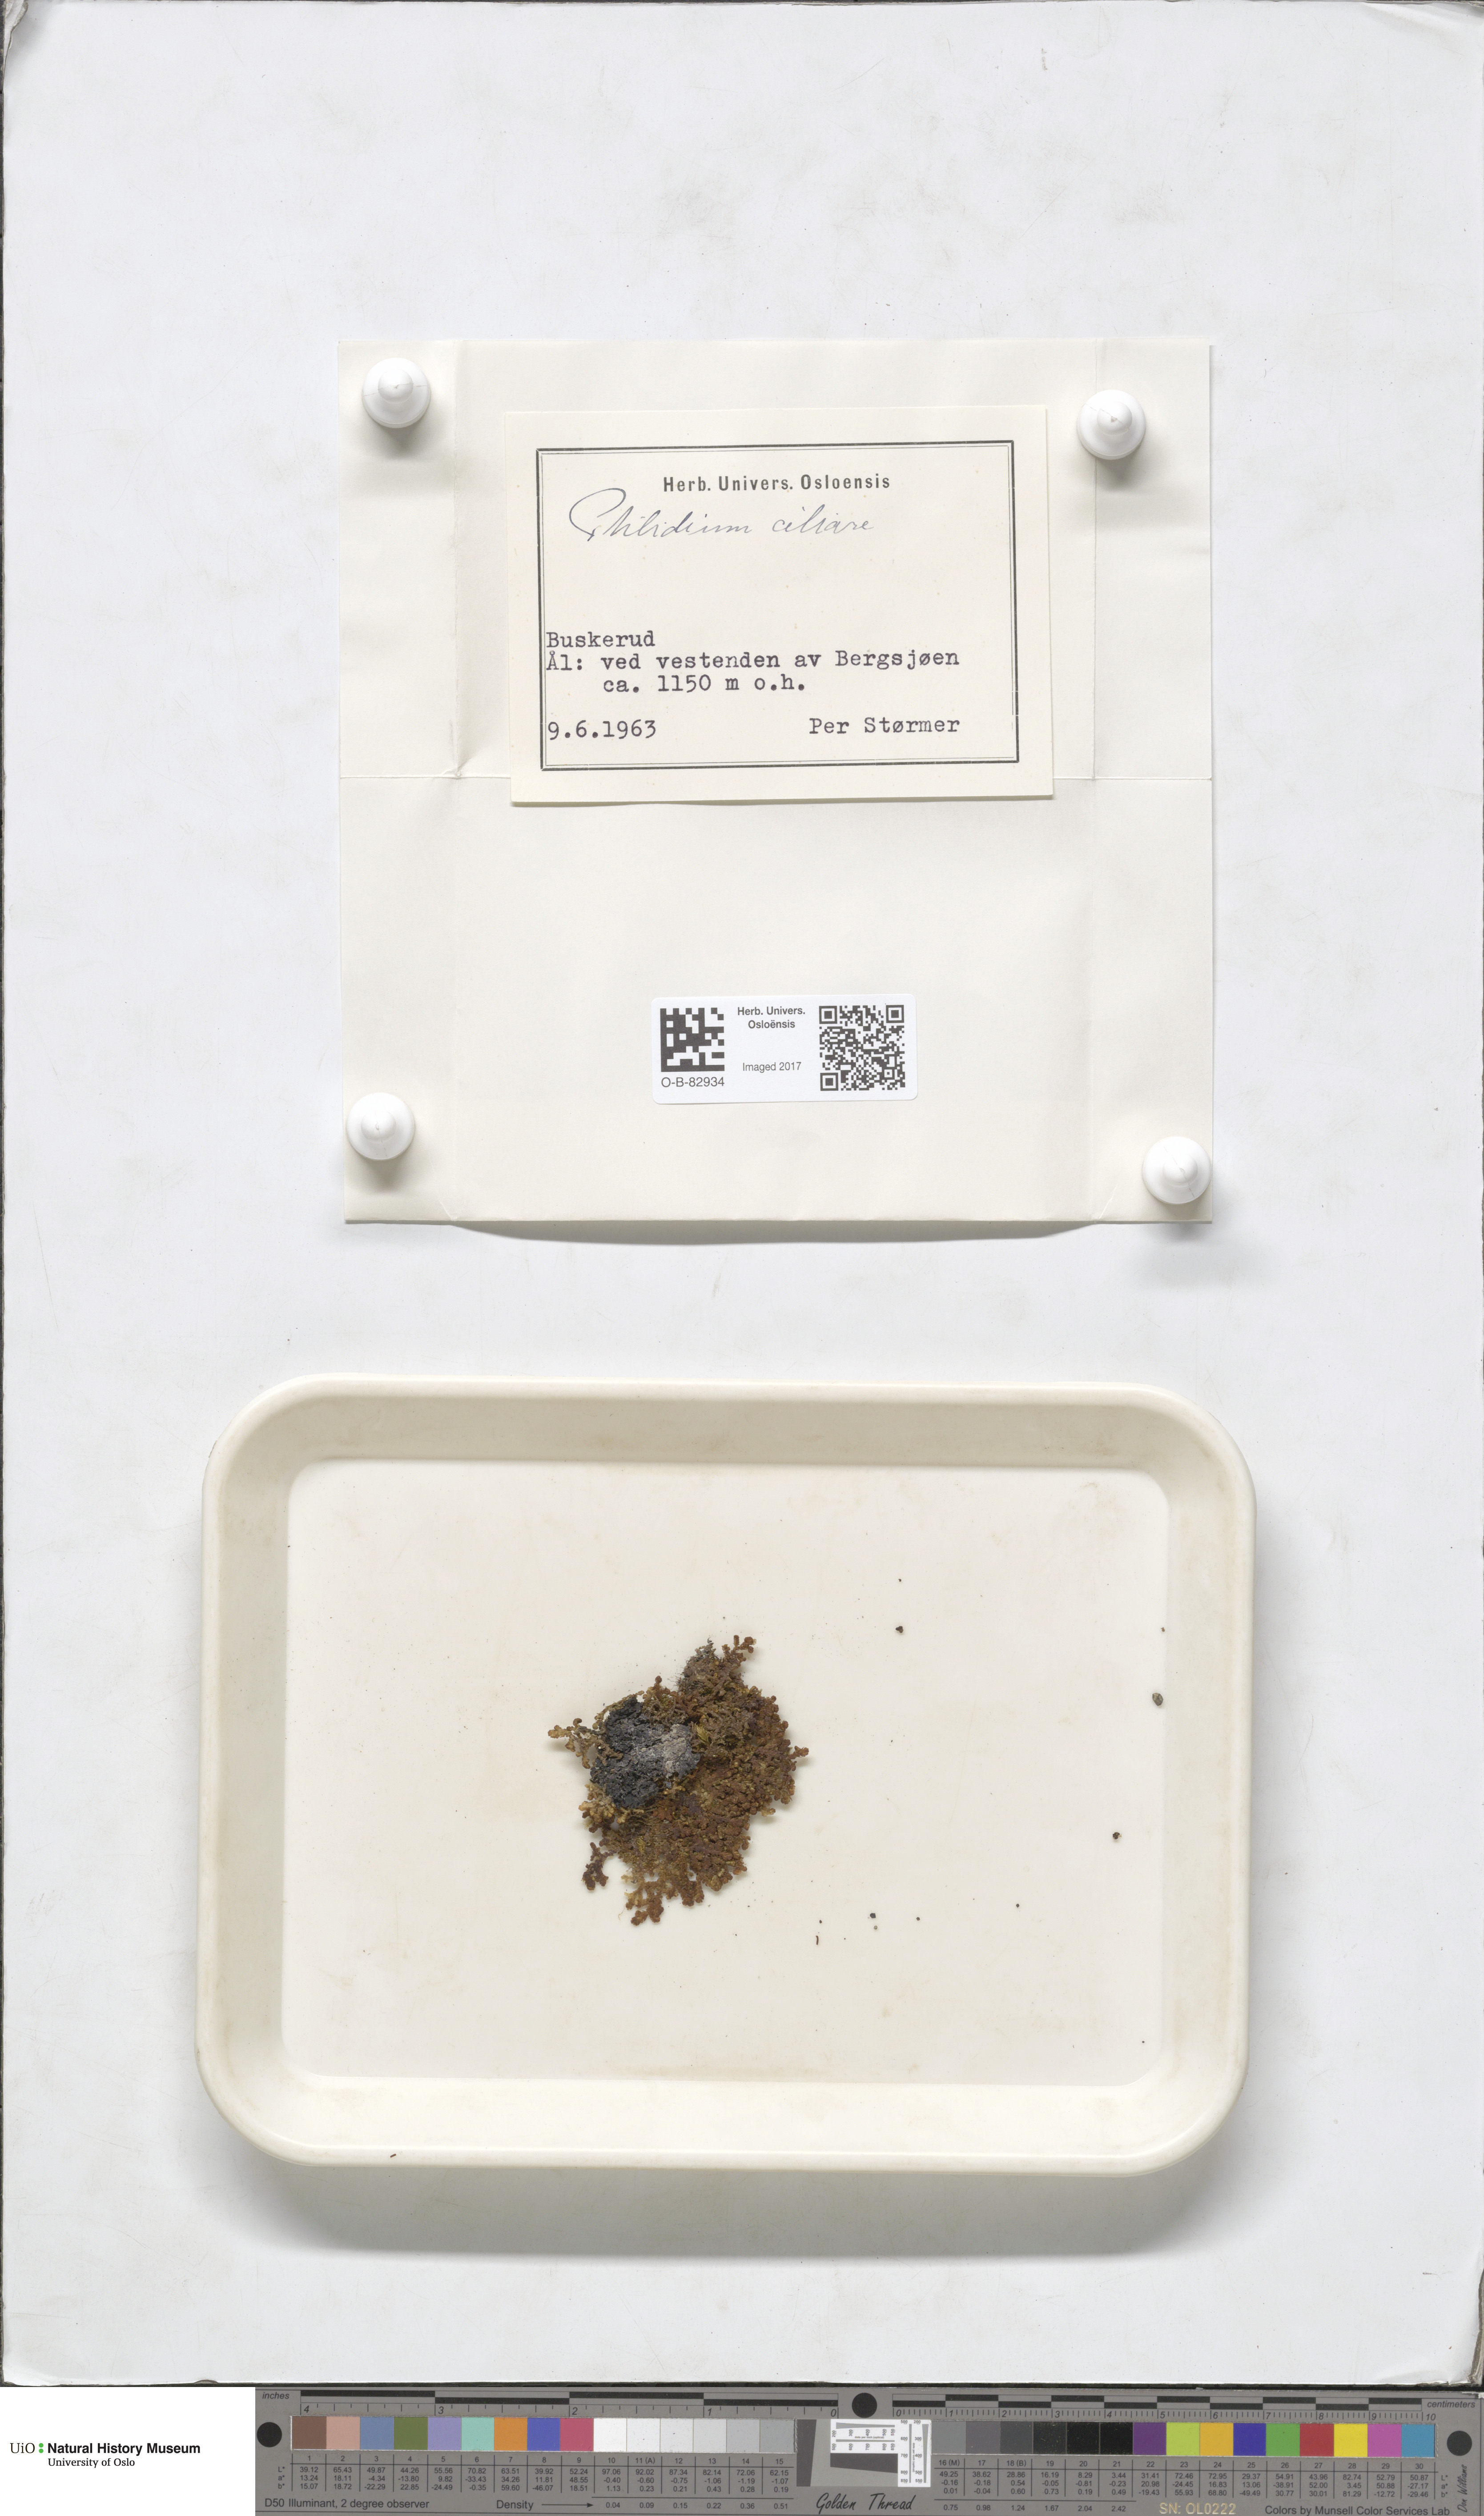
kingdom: Plantae
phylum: Marchantiophyta
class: Jungermanniopsida
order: Ptilidiales
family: Ptilidiaceae
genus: Ptilidium
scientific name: Ptilidium ciliare
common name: Ciliate fringewort
